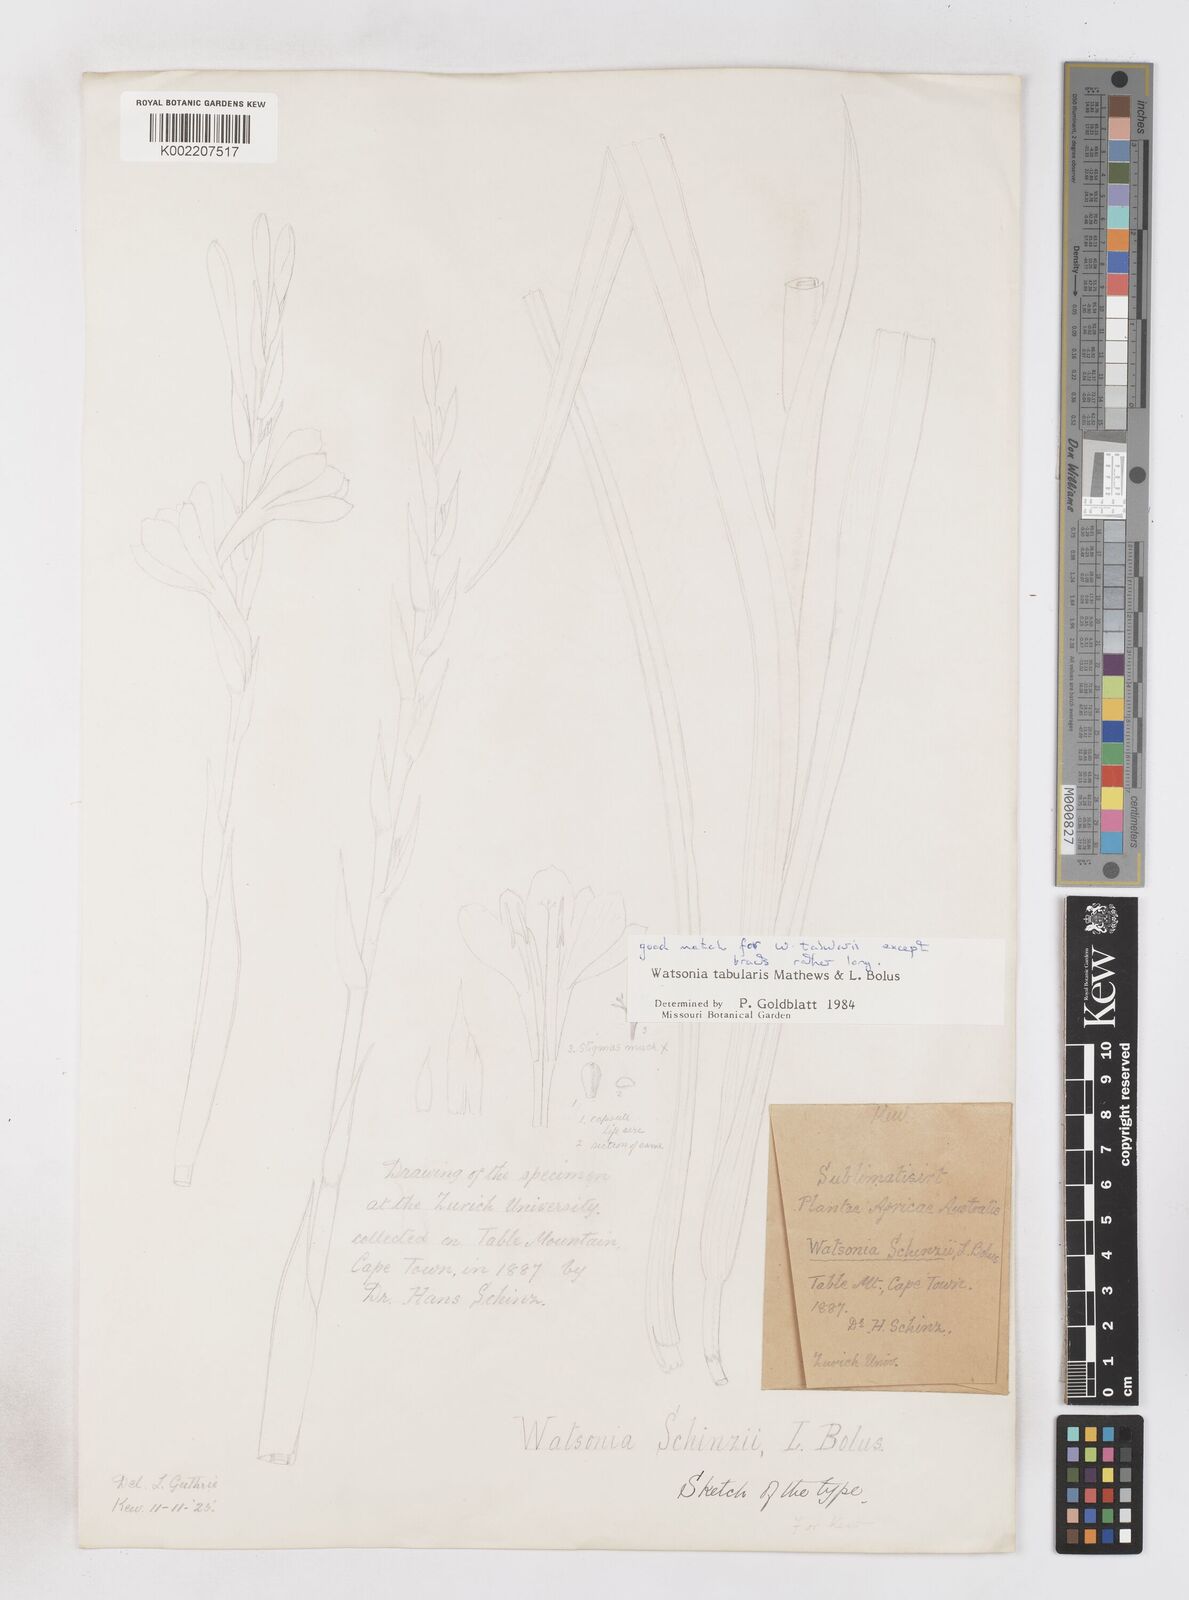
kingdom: Plantae
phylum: Tracheophyta
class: Liliopsida
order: Asparagales
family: Iridaceae
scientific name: Iridaceae
